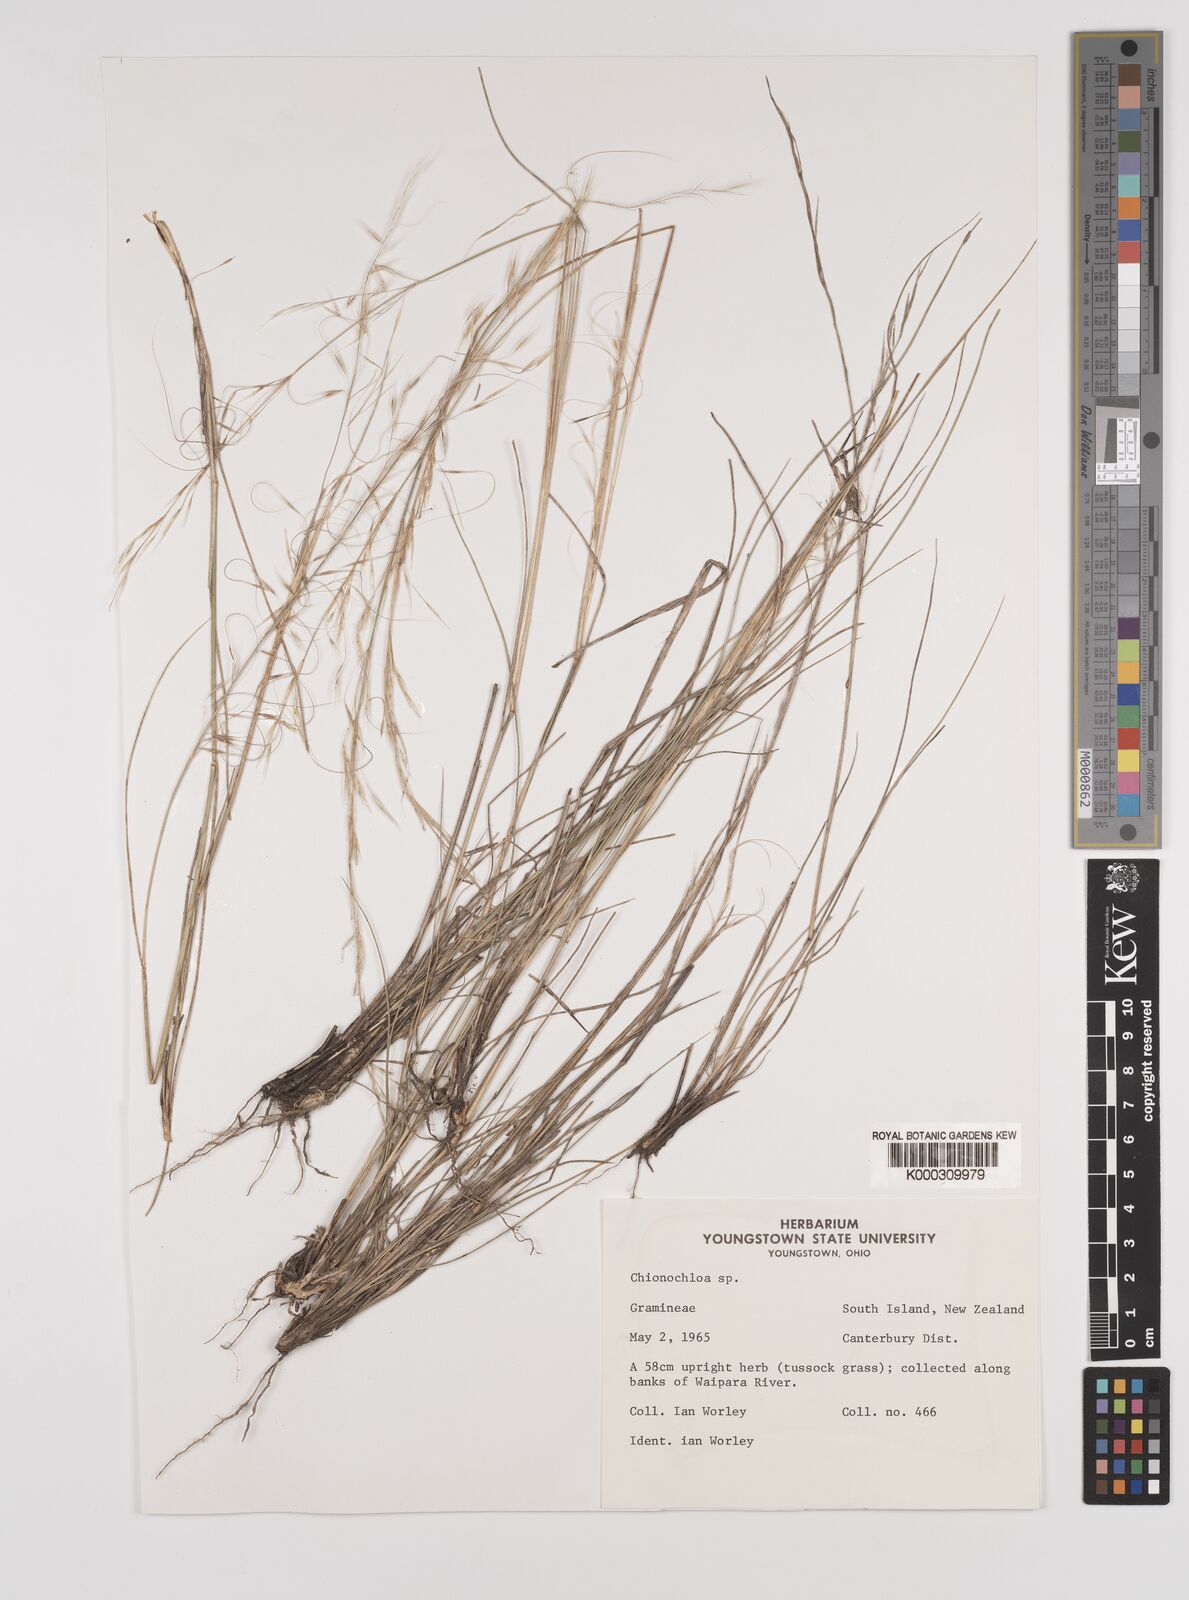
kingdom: Plantae
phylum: Tracheophyta
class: Liliopsida
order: Poales
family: Poaceae
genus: Chionochloa
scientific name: Chionochloa
